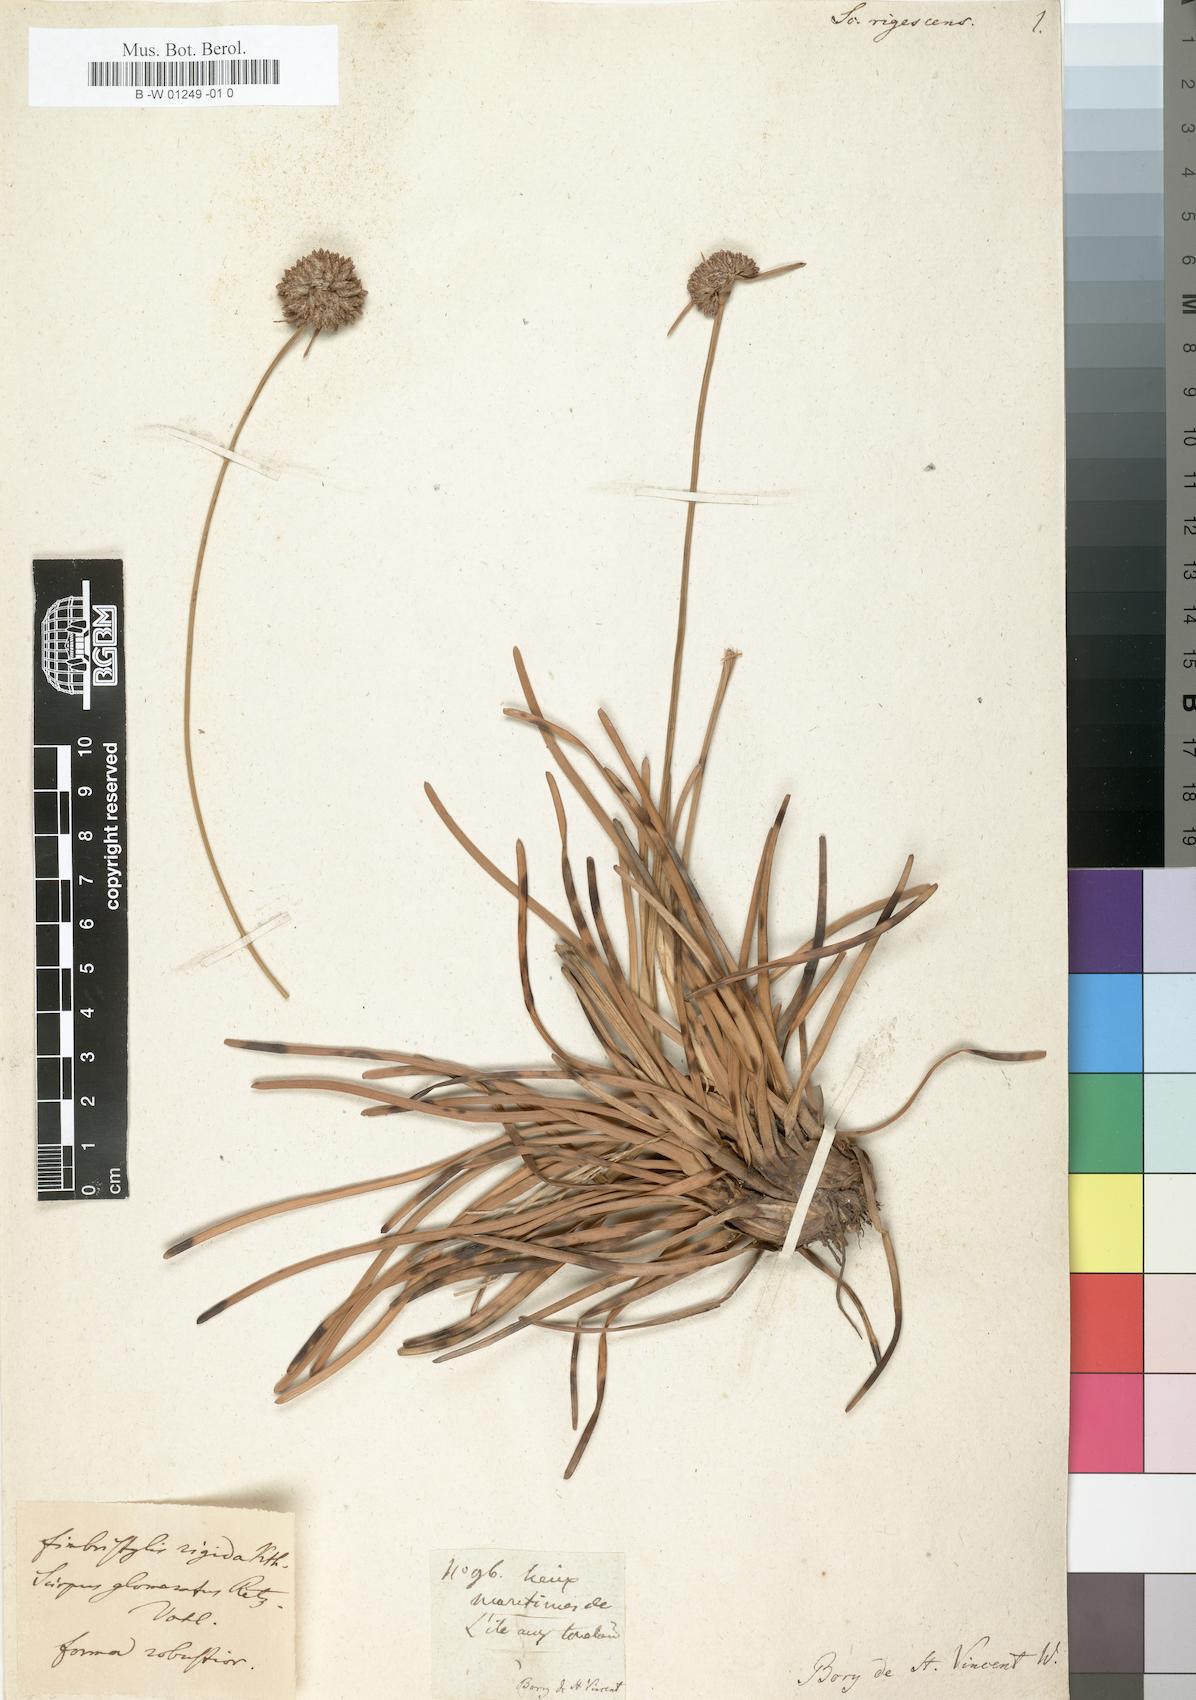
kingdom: Plantae
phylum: Tracheophyta
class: Liliopsida
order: Poales
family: Cyperaceae
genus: Fimbristylis
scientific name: Fimbristylis cymosa
